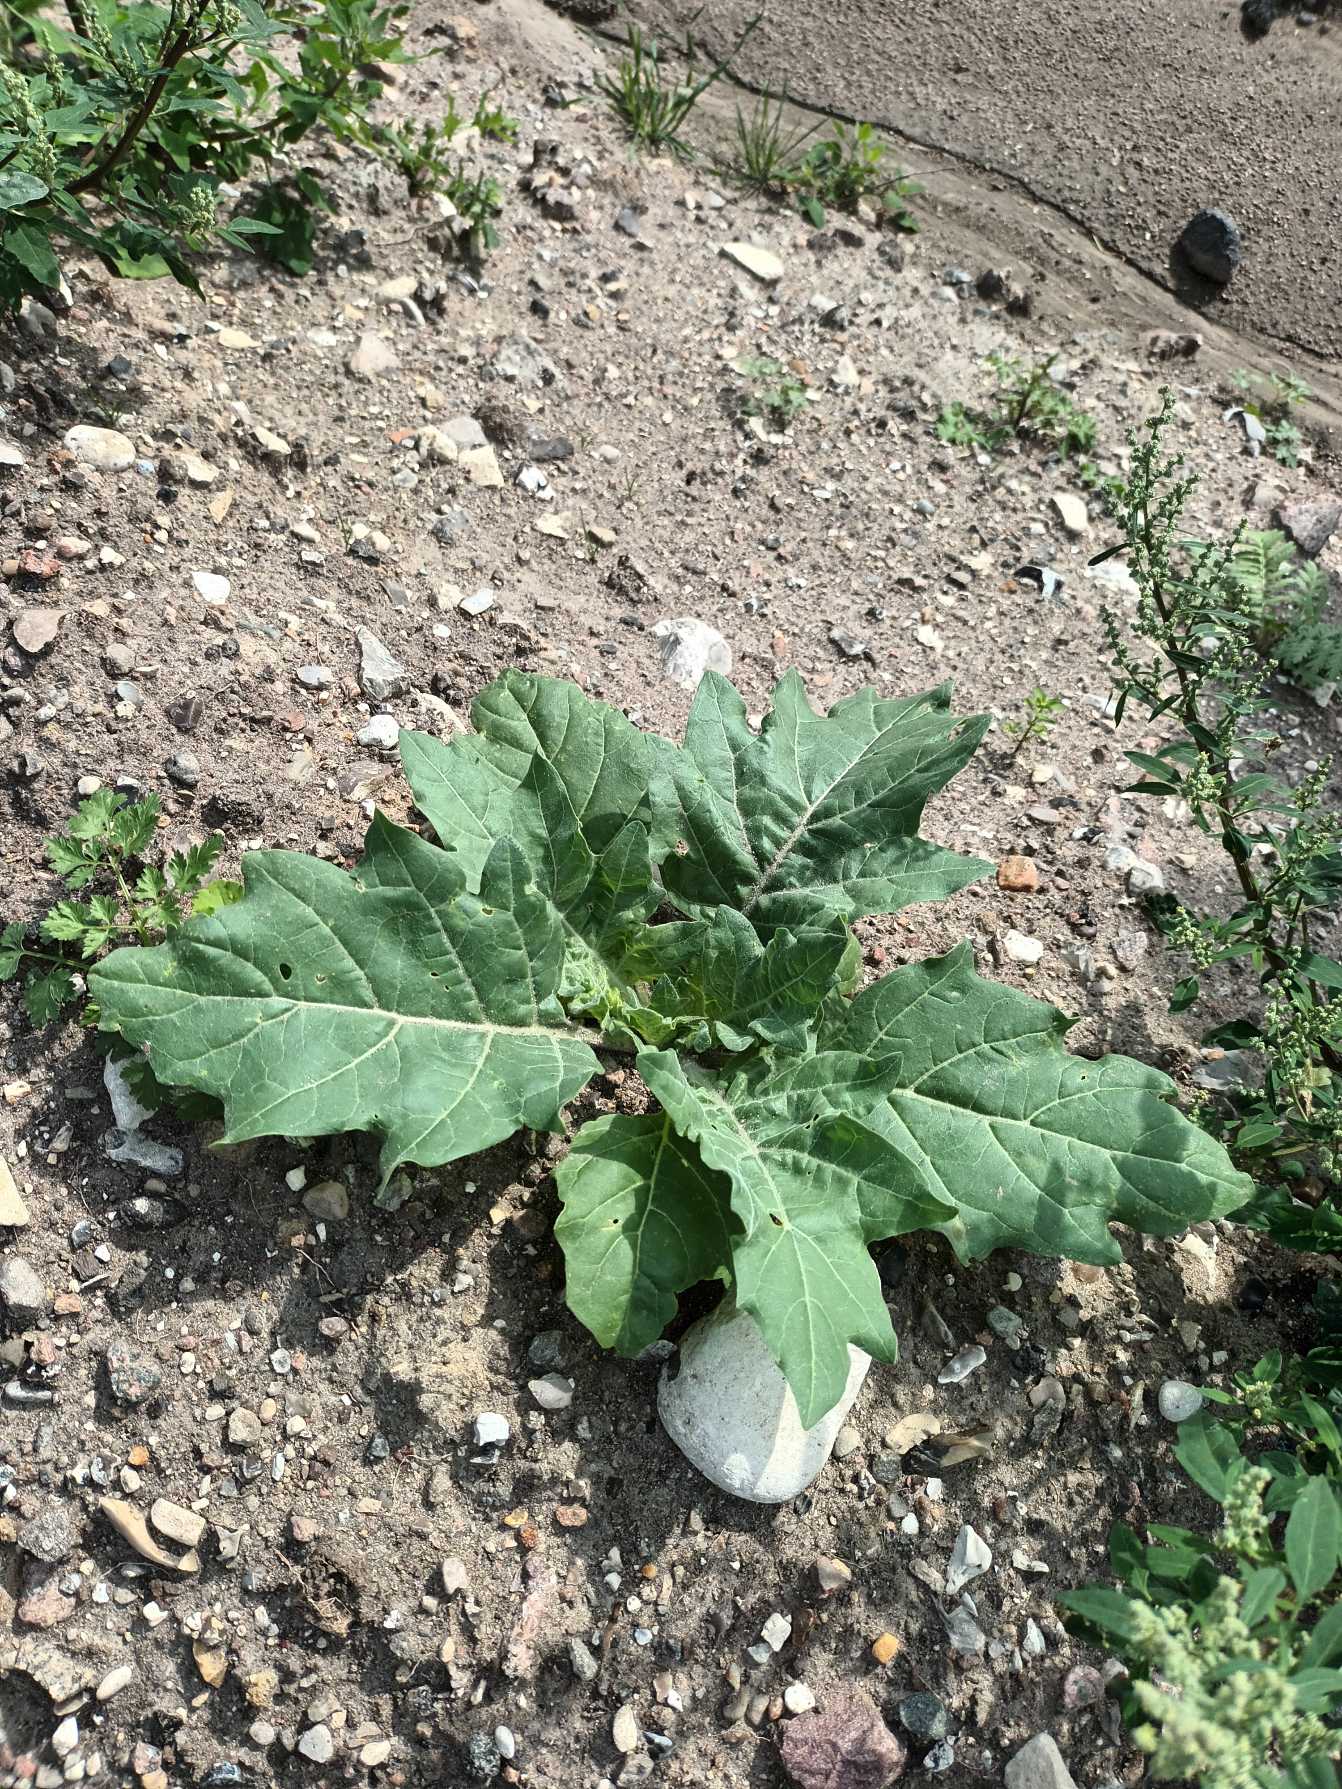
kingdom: Plantae
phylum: Tracheophyta
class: Magnoliopsida
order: Solanales
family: Solanaceae
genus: Hyoscyamus
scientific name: Hyoscyamus niger
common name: Bulmeurt
